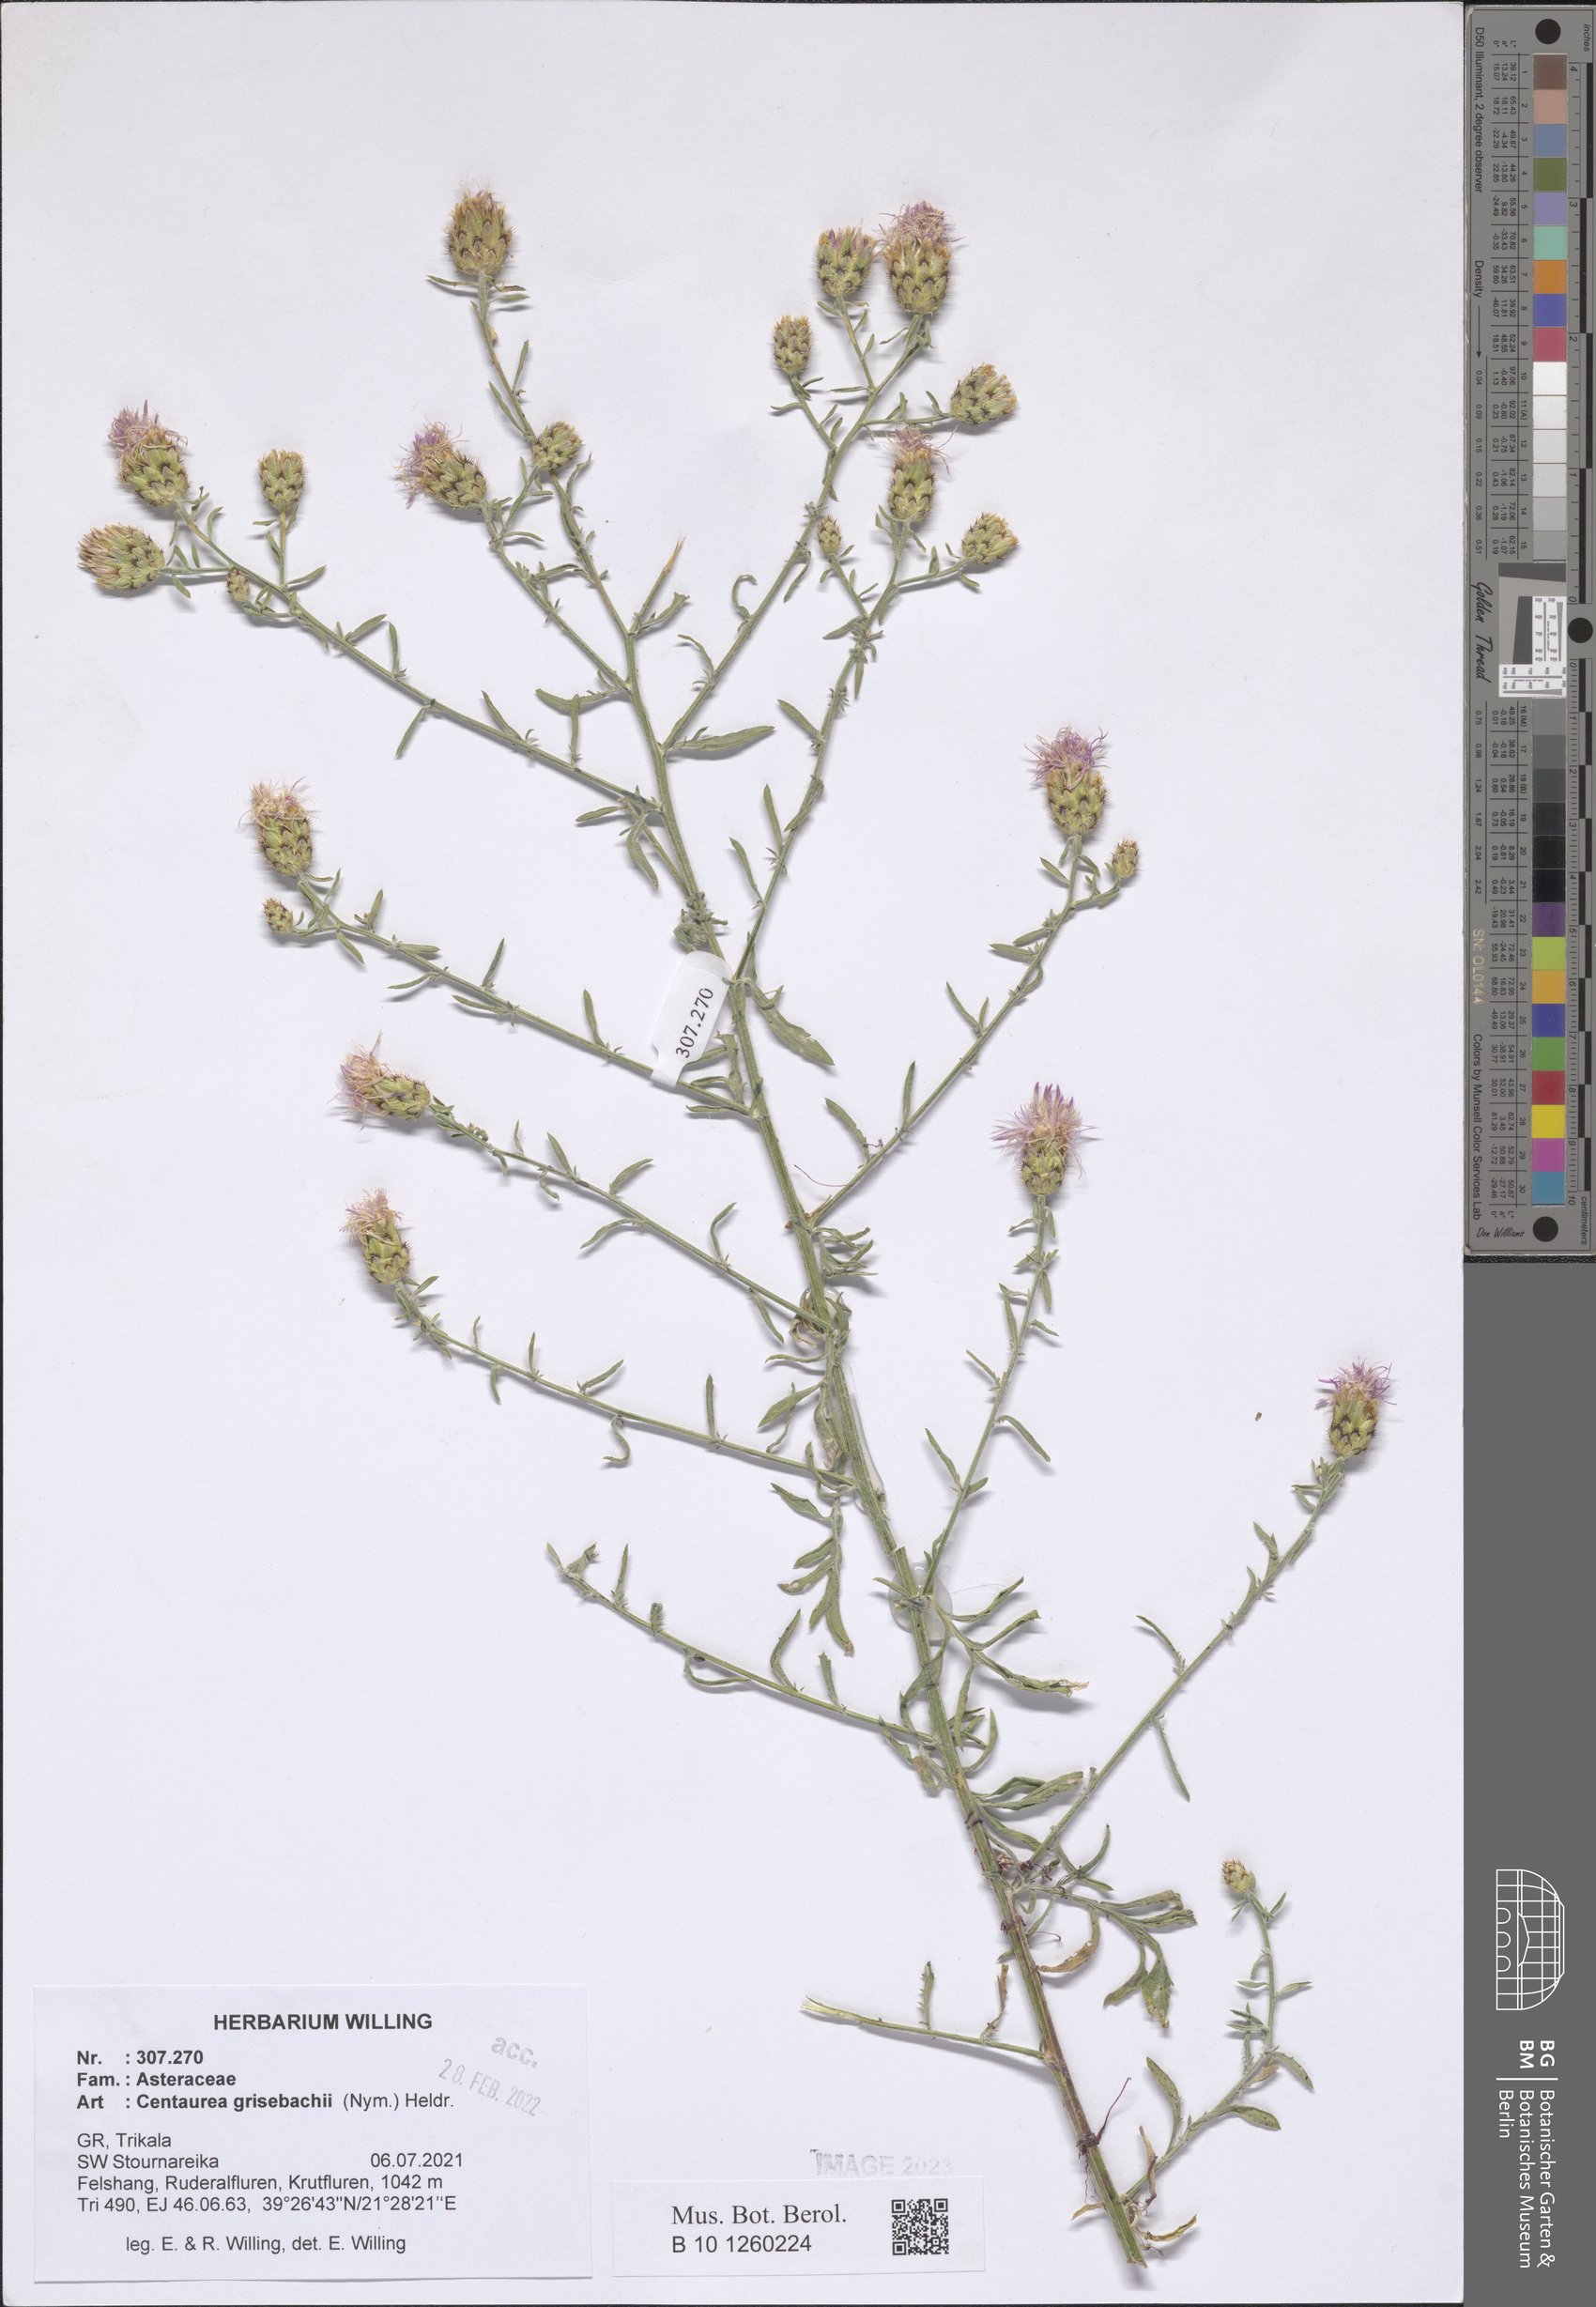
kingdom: Plantae
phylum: Tracheophyta
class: Magnoliopsida
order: Asterales
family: Asteraceae
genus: Centaurea
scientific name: Centaurea grisebachii
